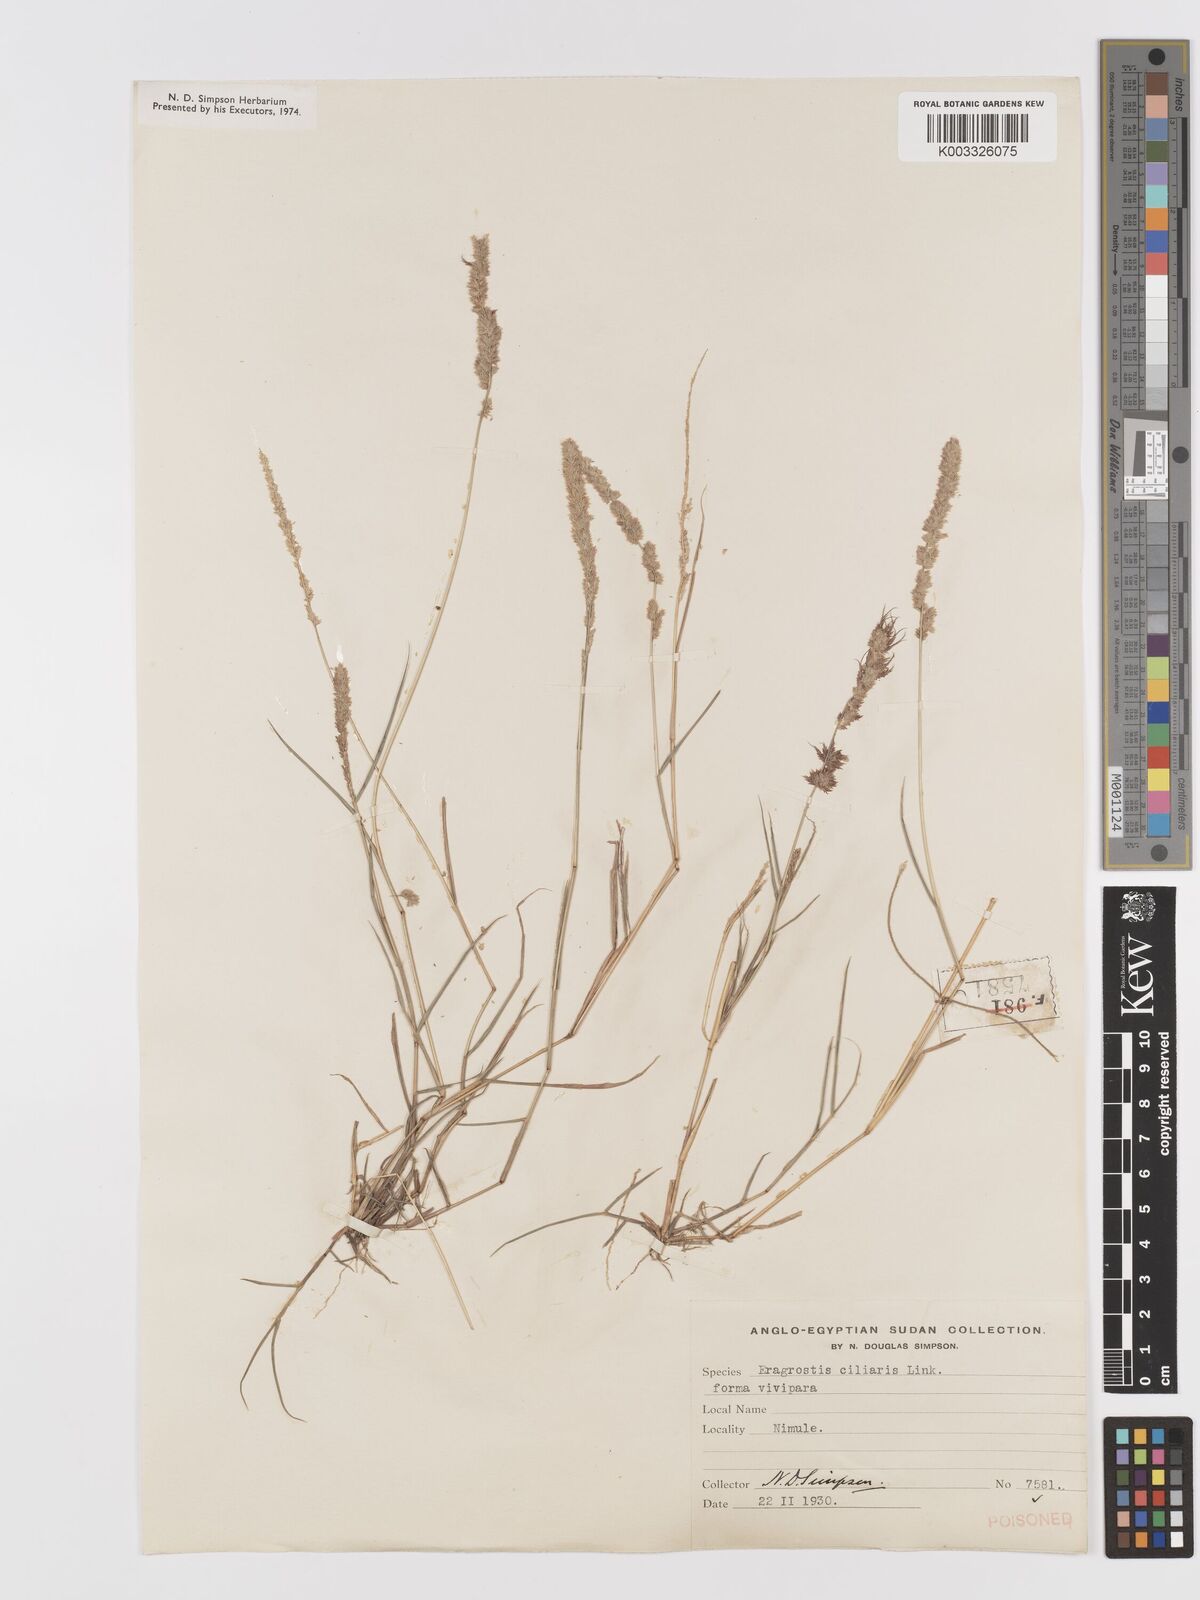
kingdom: Plantae
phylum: Tracheophyta
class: Liliopsida
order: Poales
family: Poaceae
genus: Eragrostis
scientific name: Eragrostis ciliaris
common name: Gophertail lovegrass
